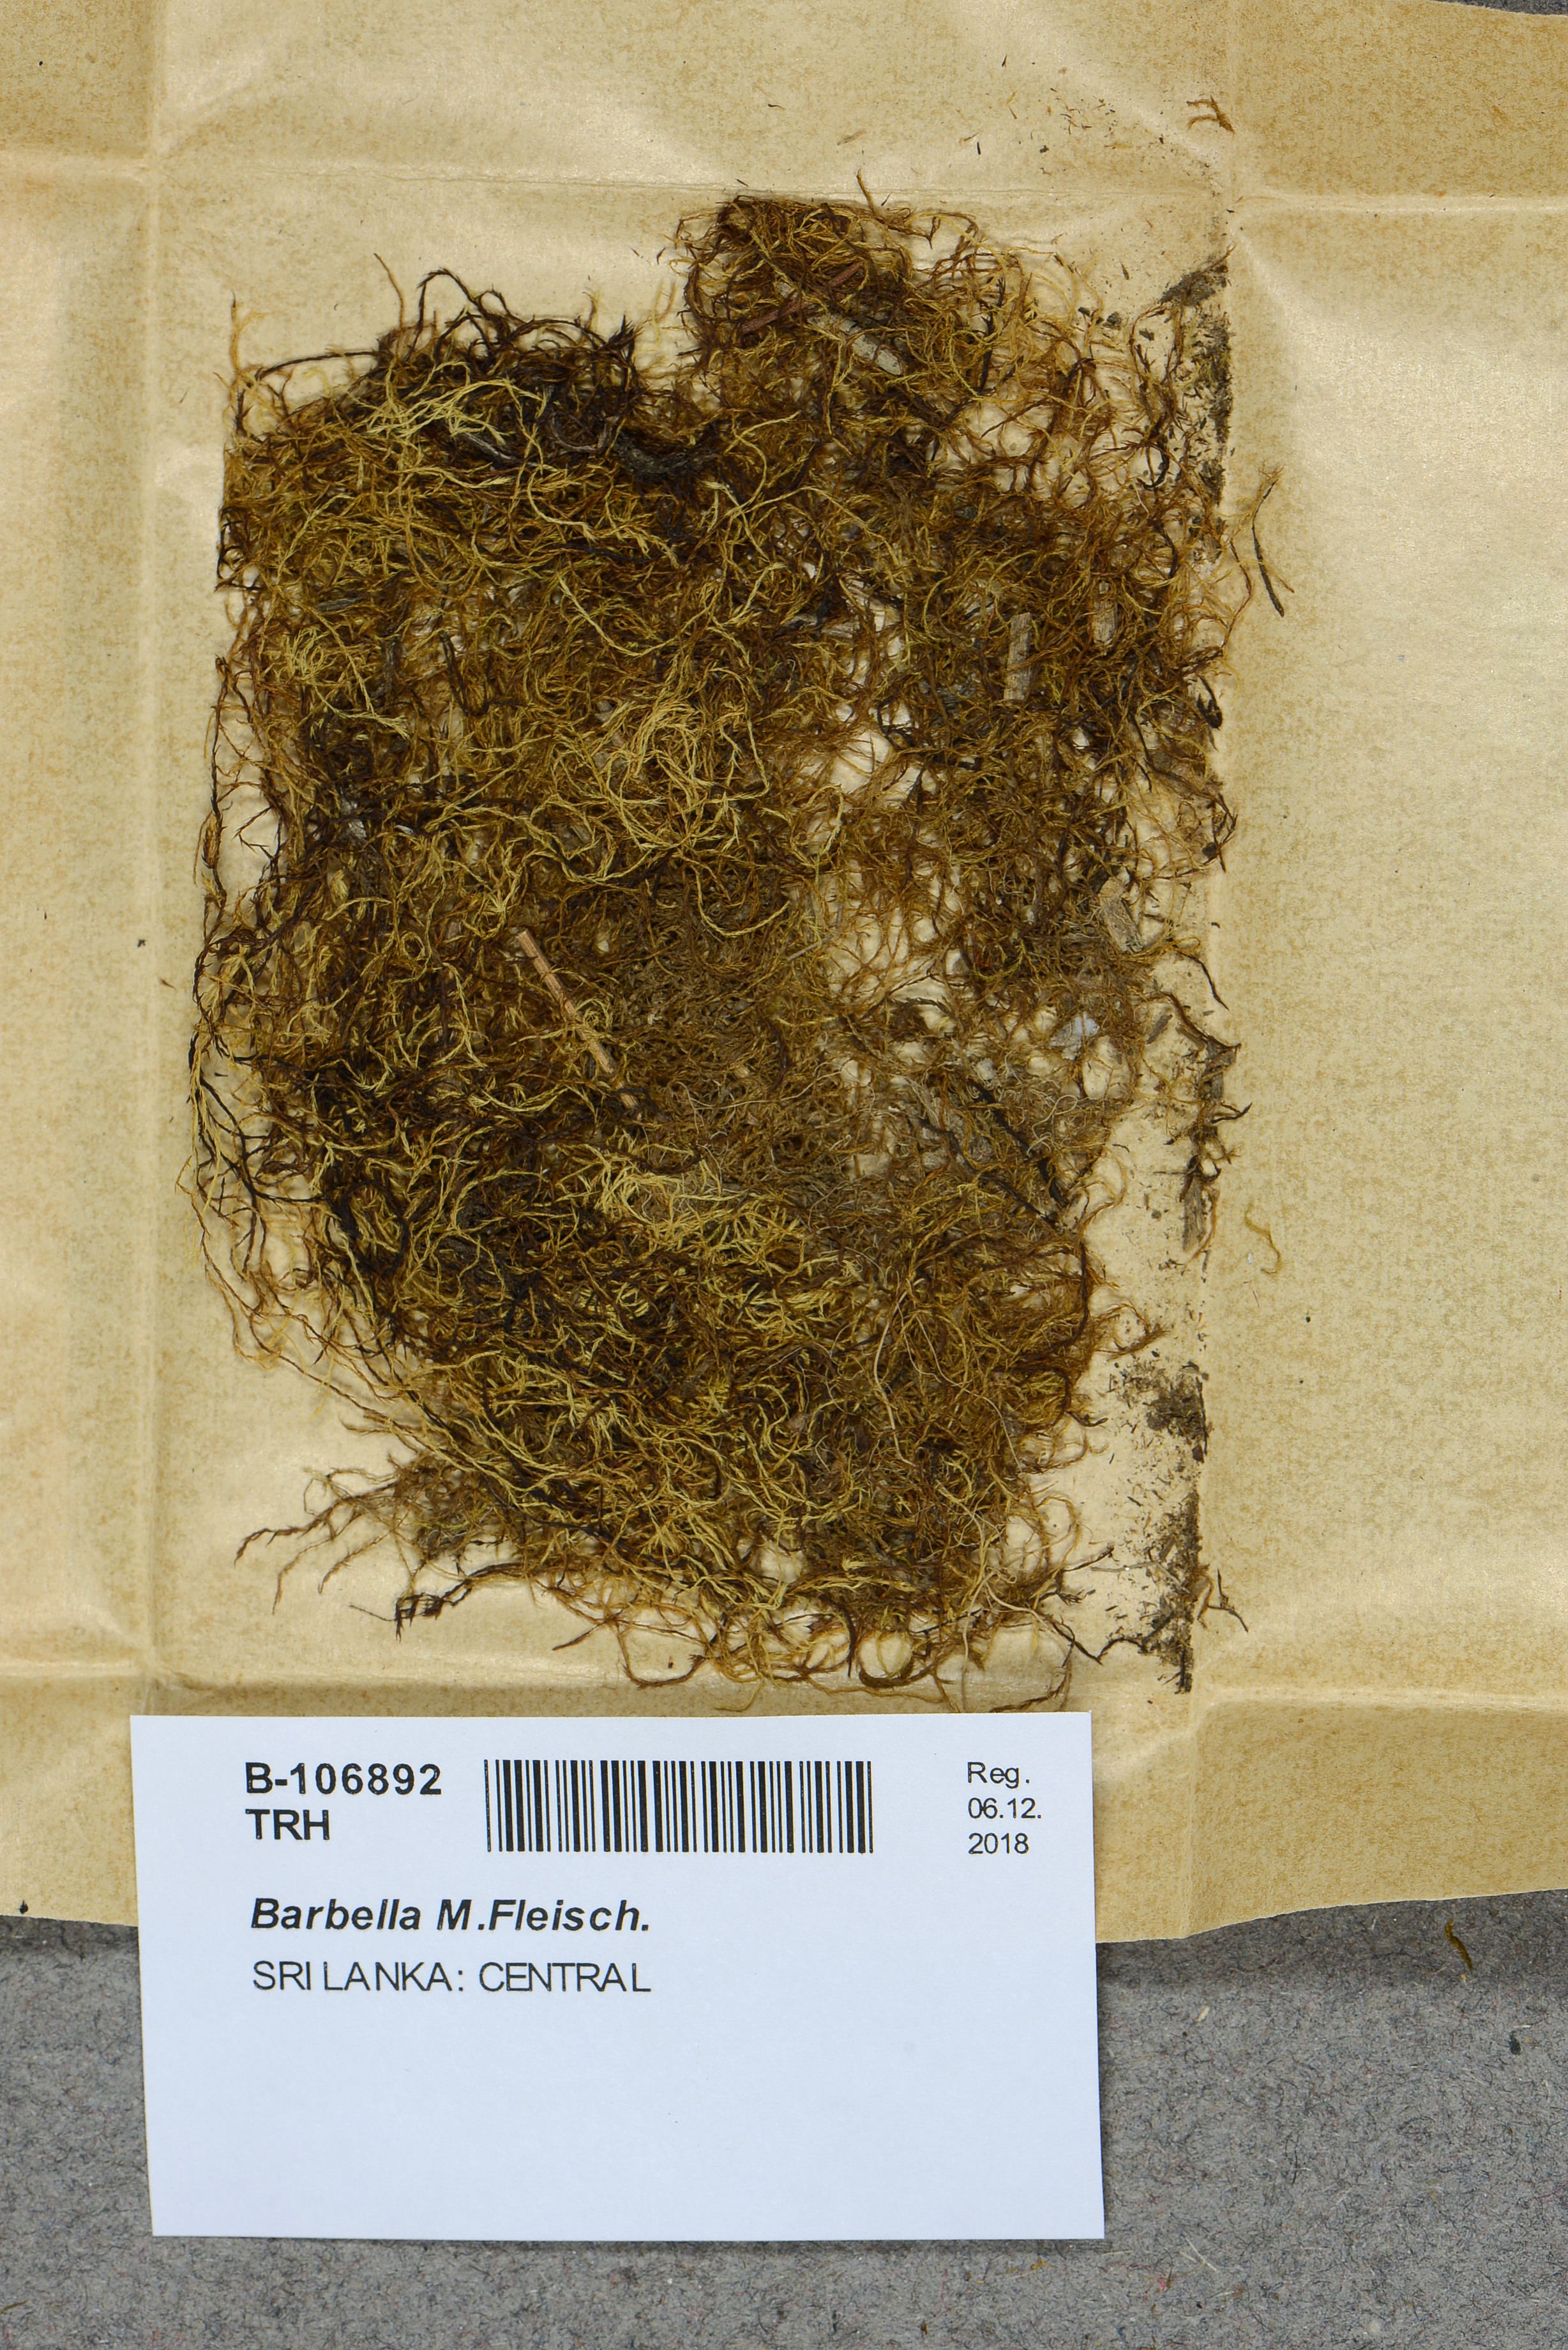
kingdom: Plantae
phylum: Bryophyta
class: Bryopsida
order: Hypnales
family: Meteoriaceae
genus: Barbella
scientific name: Barbella
